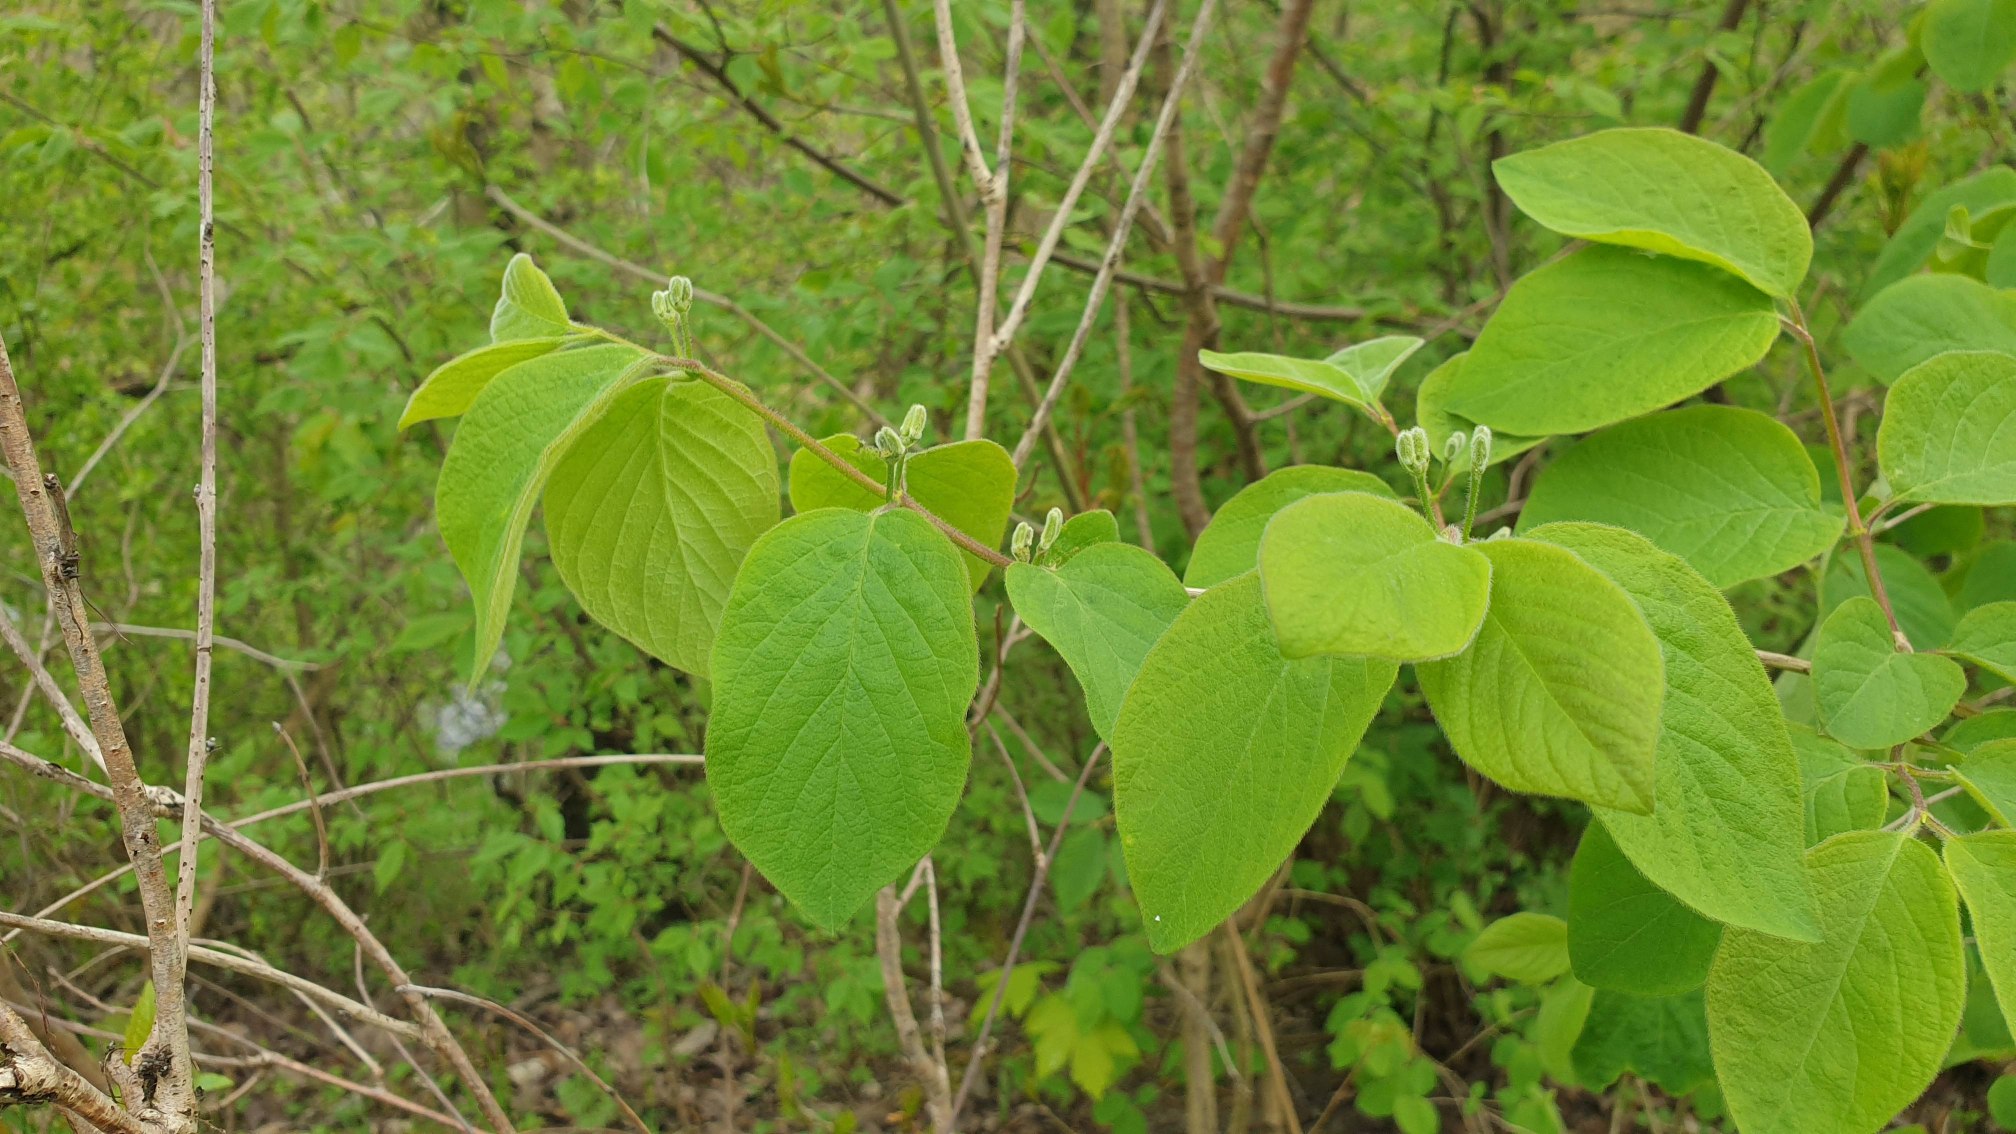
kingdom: Plantae
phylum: Tracheophyta
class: Magnoliopsida
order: Dipsacales
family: Caprifoliaceae
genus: Lonicera
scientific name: Lonicera xylosteum
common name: Dunet gedeblad
